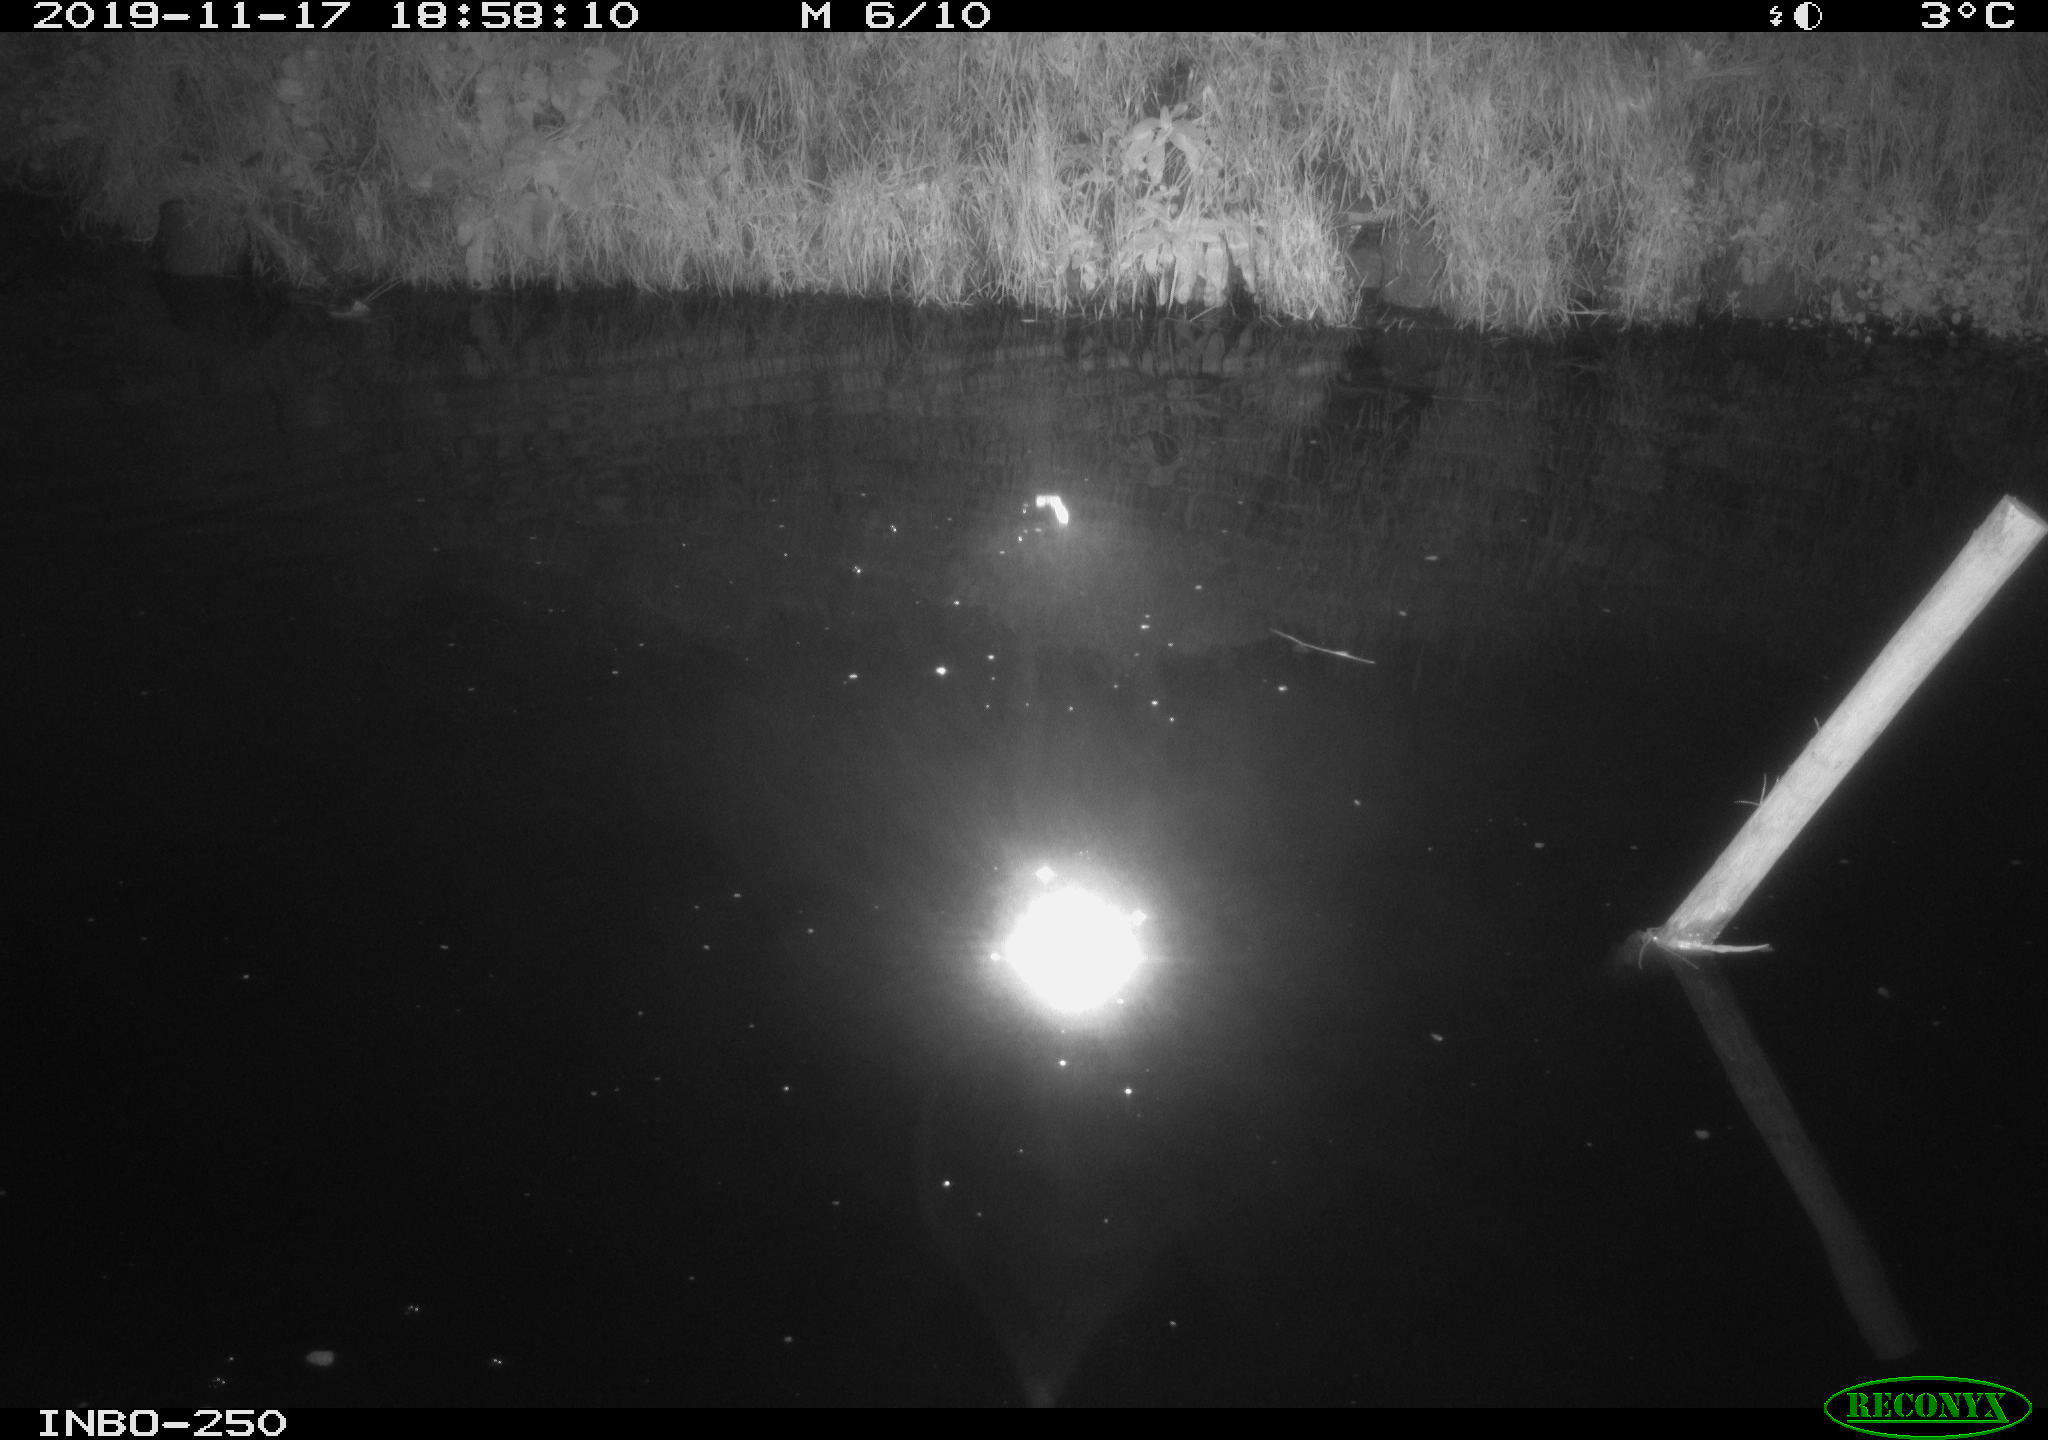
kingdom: Animalia
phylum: Chordata
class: Aves
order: Anseriformes
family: Anatidae
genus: Anas
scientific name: Anas platyrhynchos
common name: Mallard
